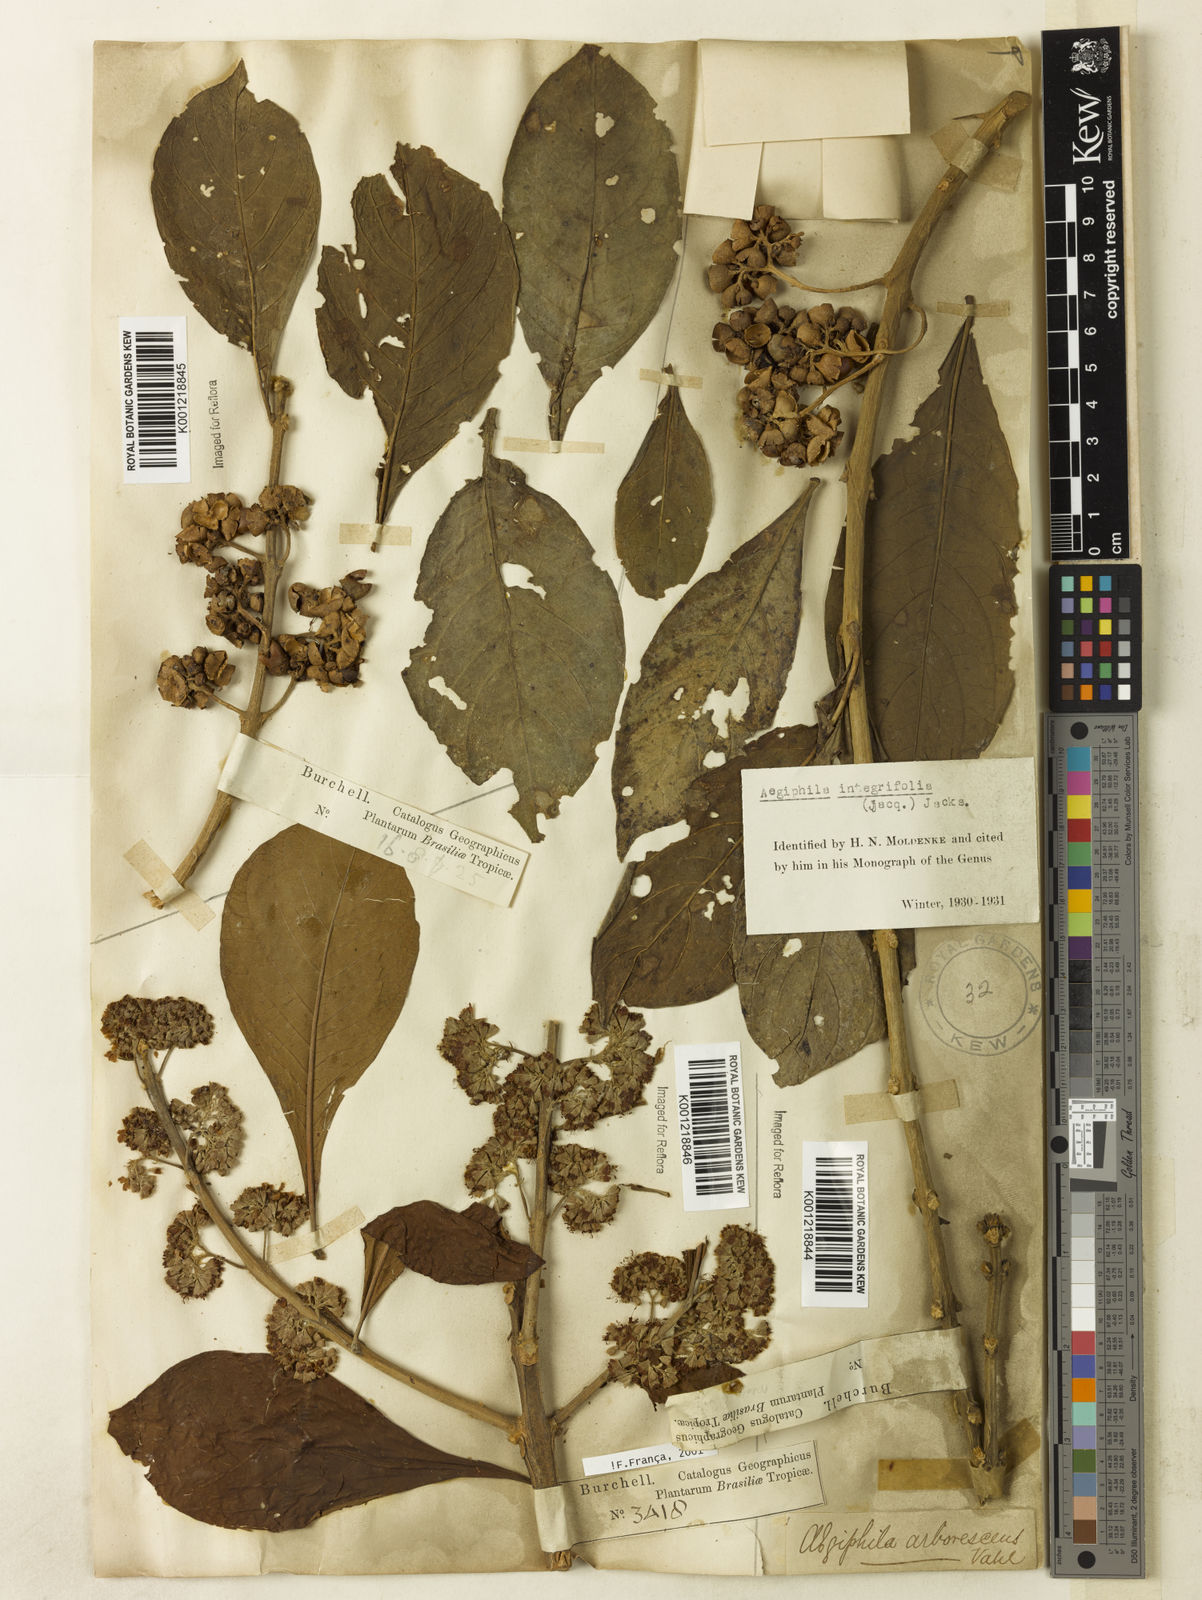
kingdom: Plantae
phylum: Tracheophyta
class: Magnoliopsida
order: Lamiales
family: Lamiaceae
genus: Aegiphila
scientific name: Aegiphila
